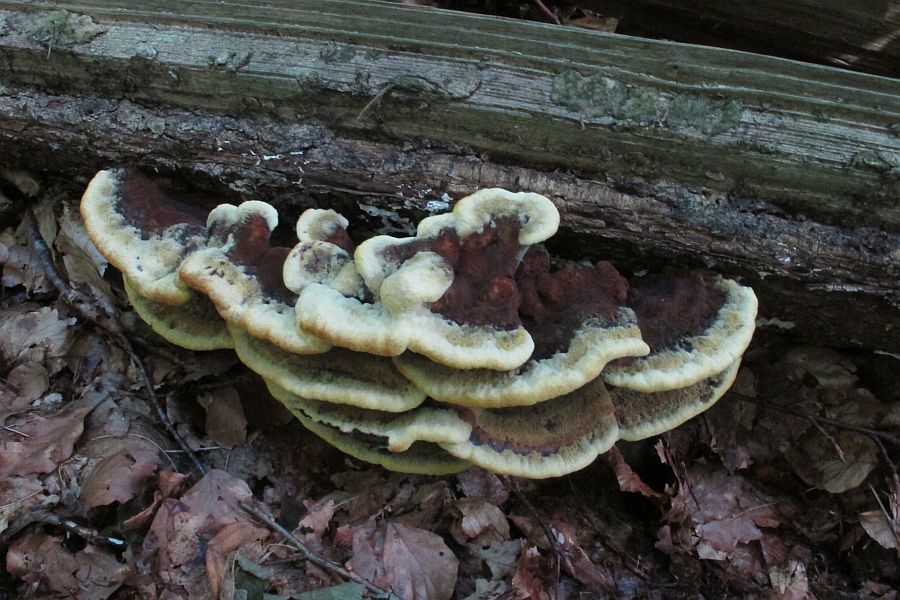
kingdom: Fungi
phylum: Basidiomycota
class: Agaricomycetes
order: Polyporales
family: Laetiporaceae
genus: Phaeolus
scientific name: Phaeolus schweinitzii
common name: brunporesvamp
